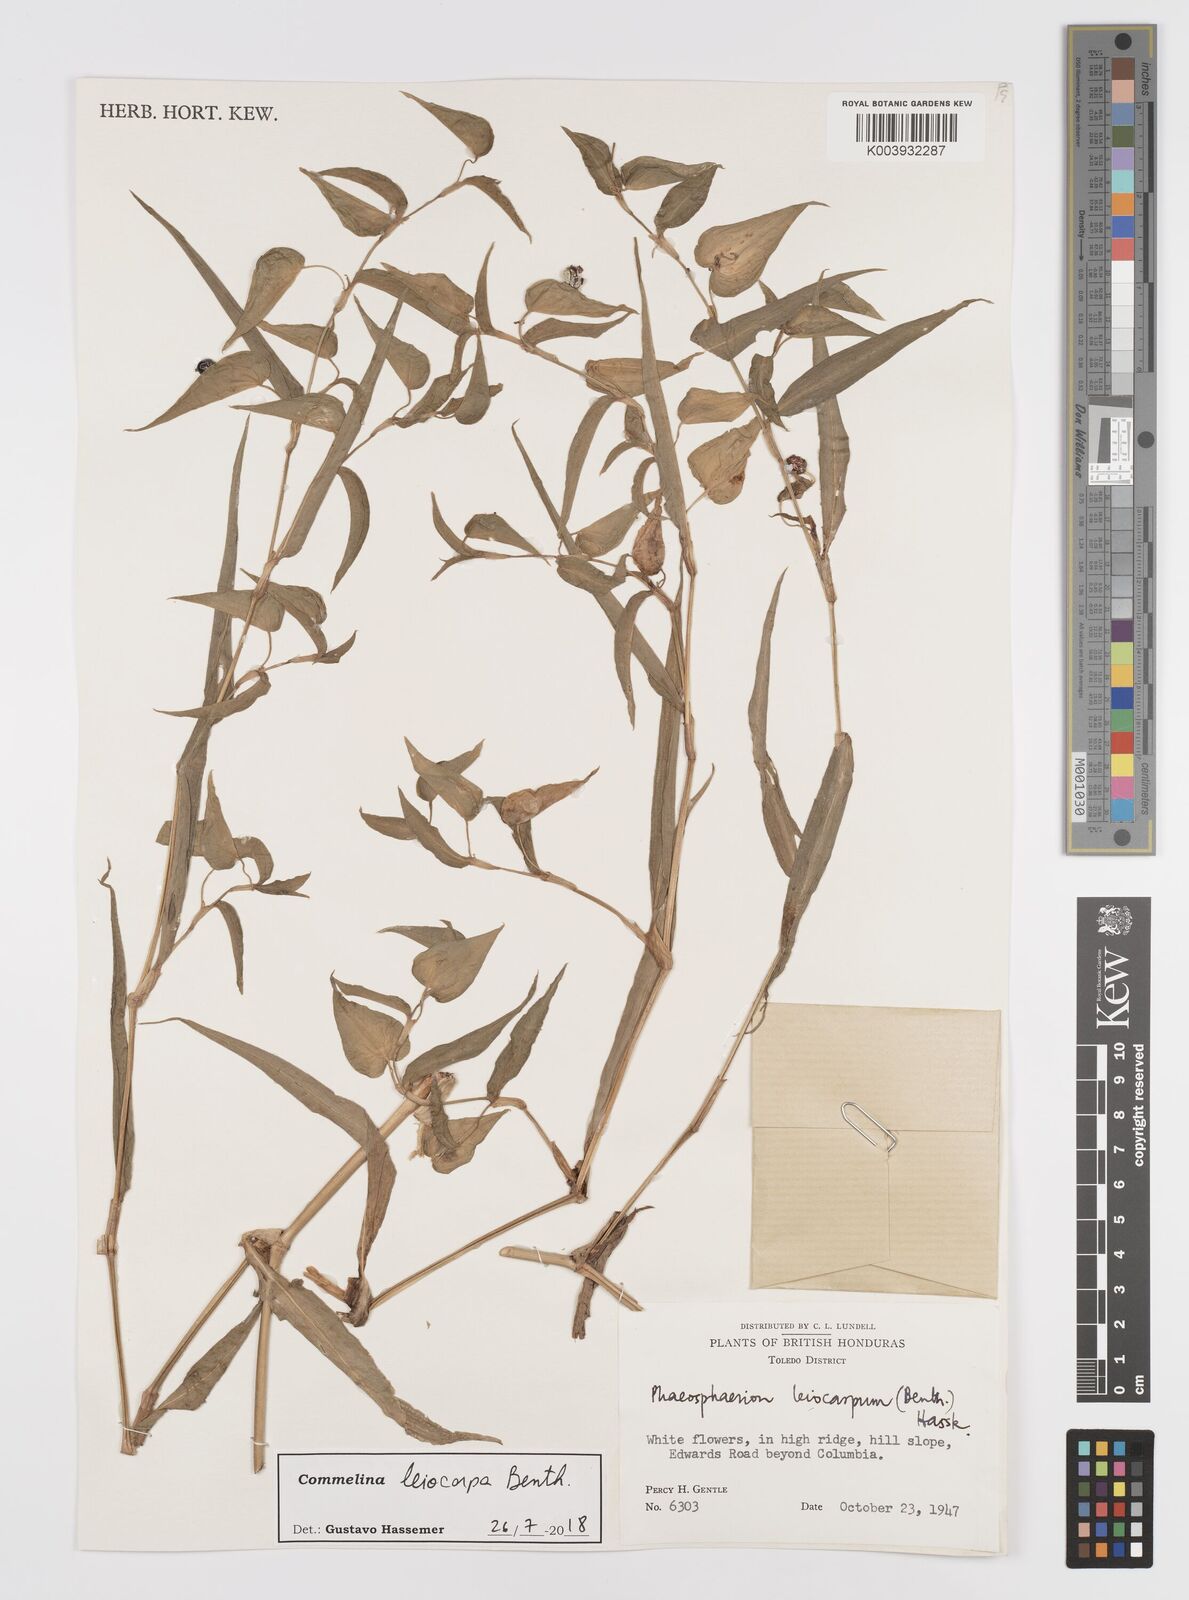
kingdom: Plantae
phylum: Tracheophyta
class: Liliopsida
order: Commelinales
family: Commelinaceae
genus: Commelina
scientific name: Commelina leiocarpa
